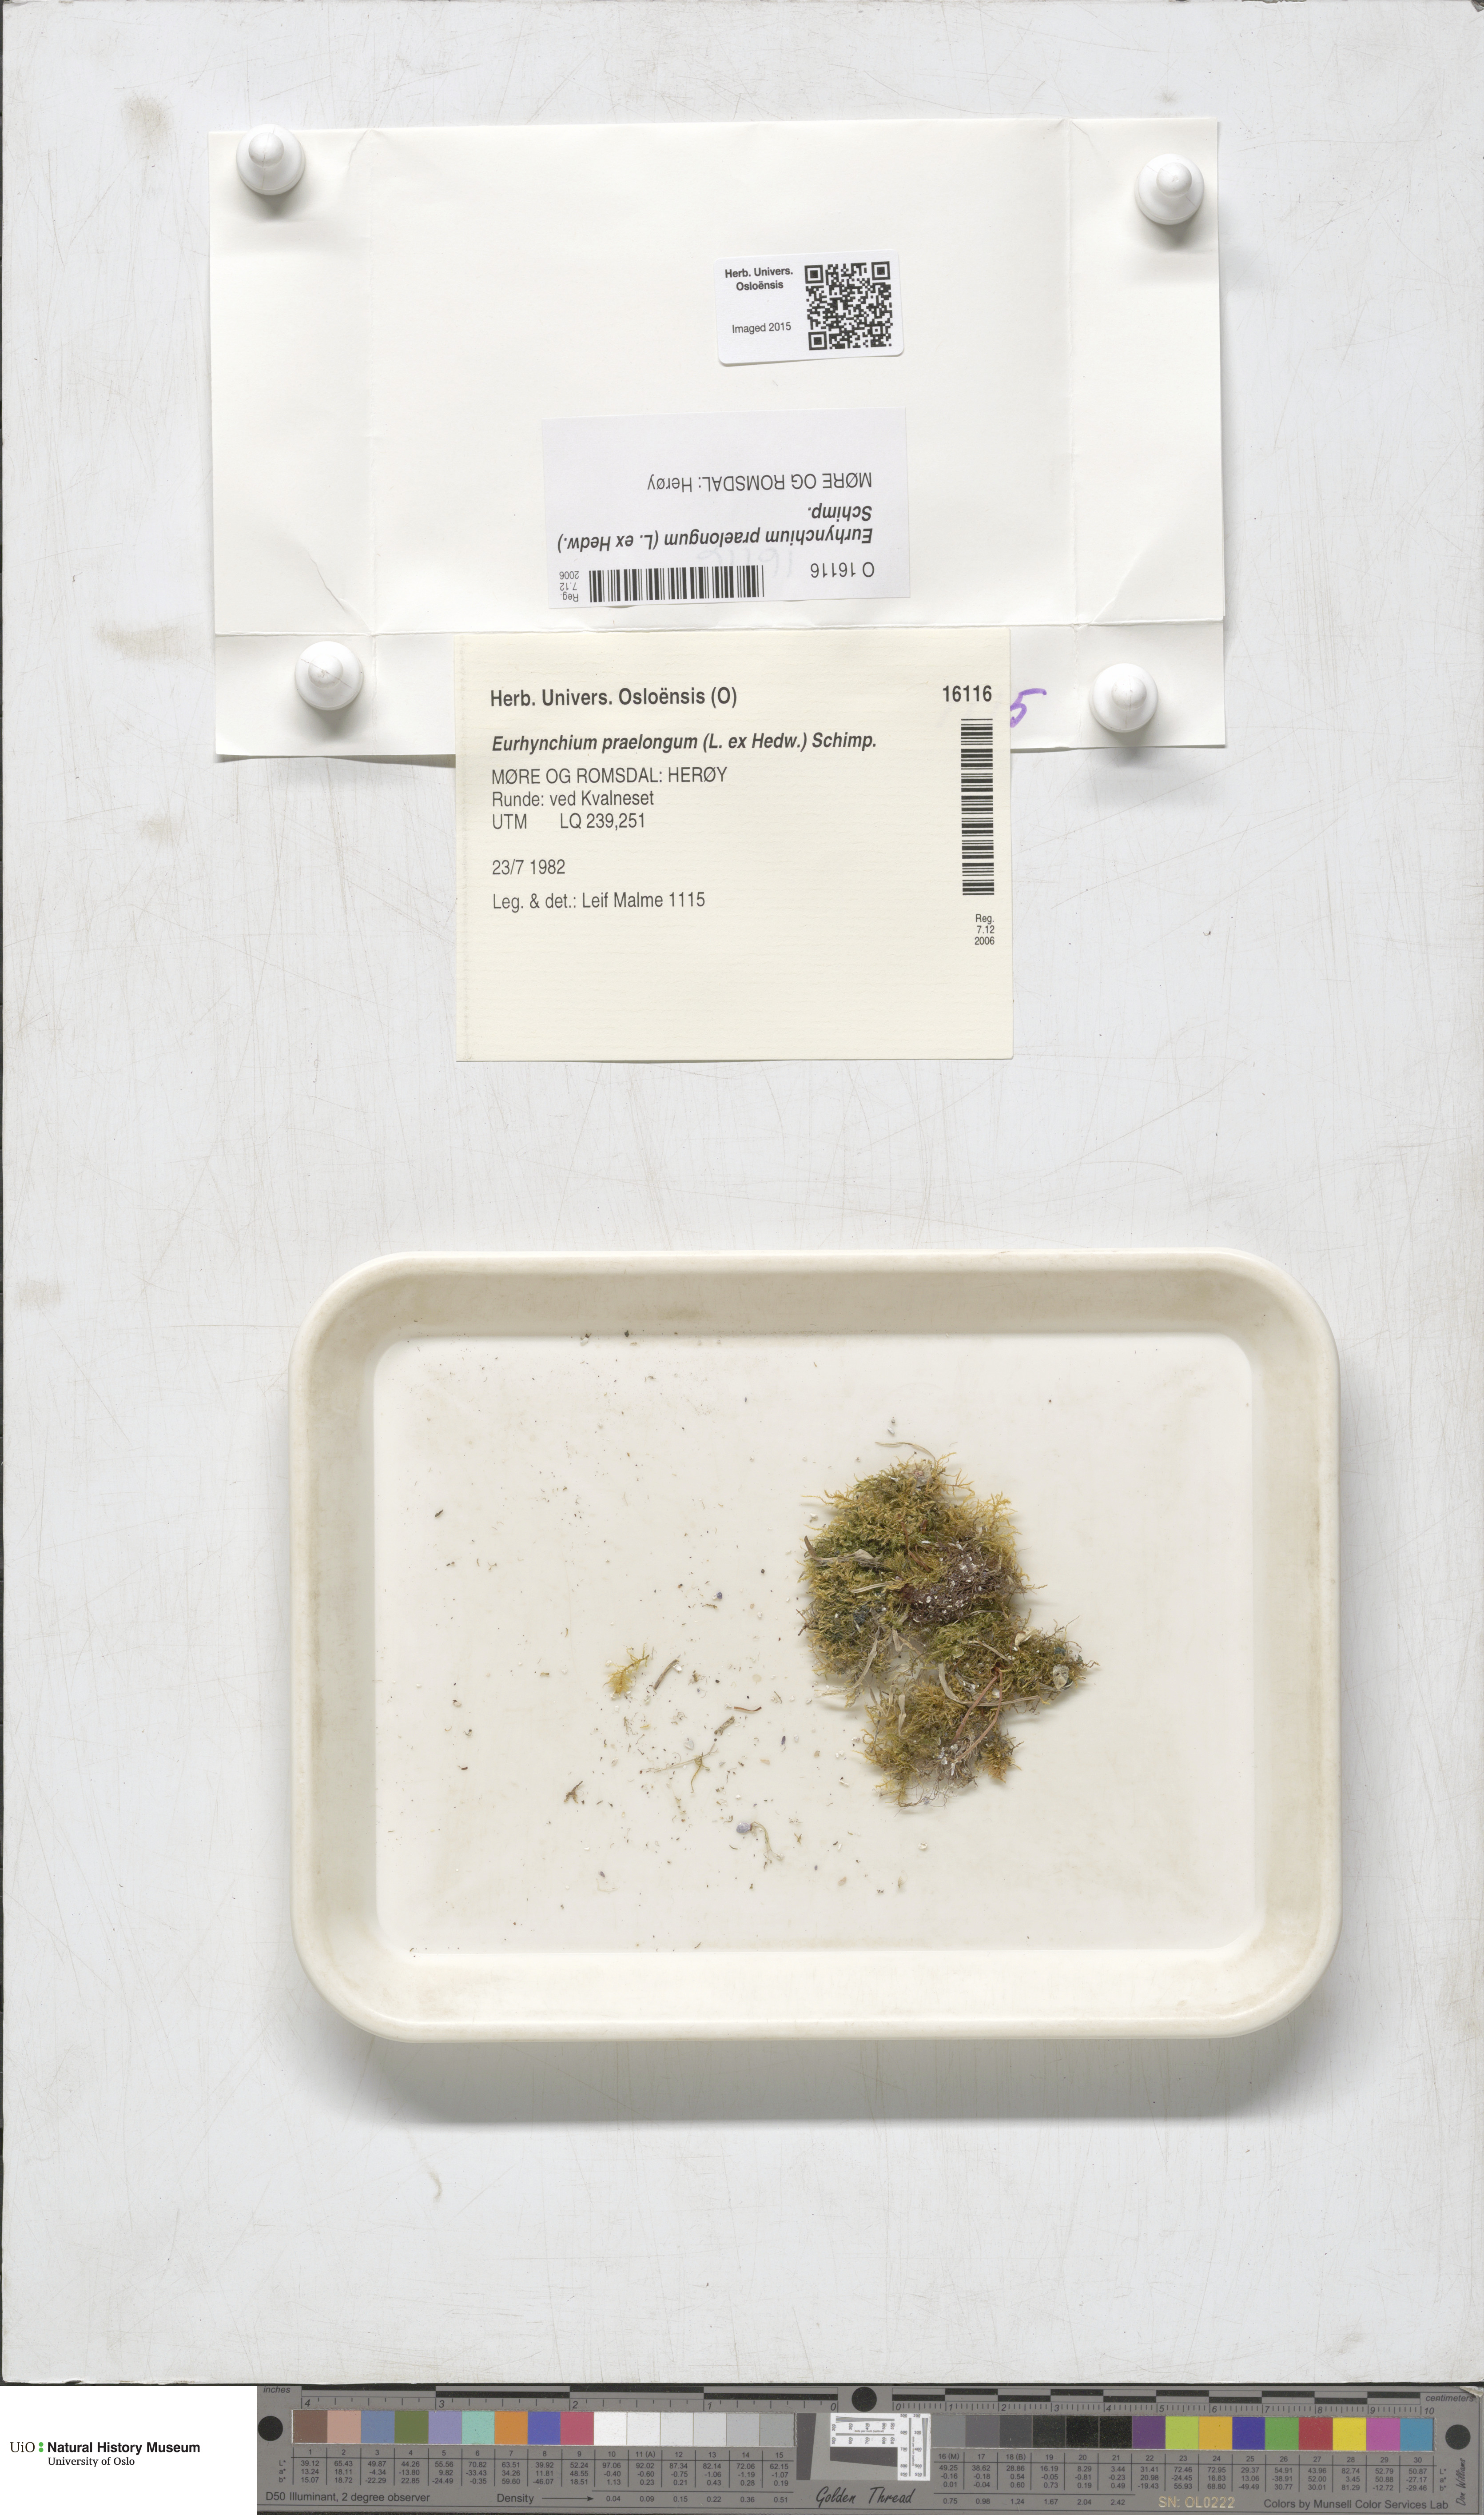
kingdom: Plantae
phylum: Bryophyta
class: Bryopsida
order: Hypnales
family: Brachytheciaceae
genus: Kindbergia
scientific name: Kindbergia praelonga
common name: Slender beaked moss
